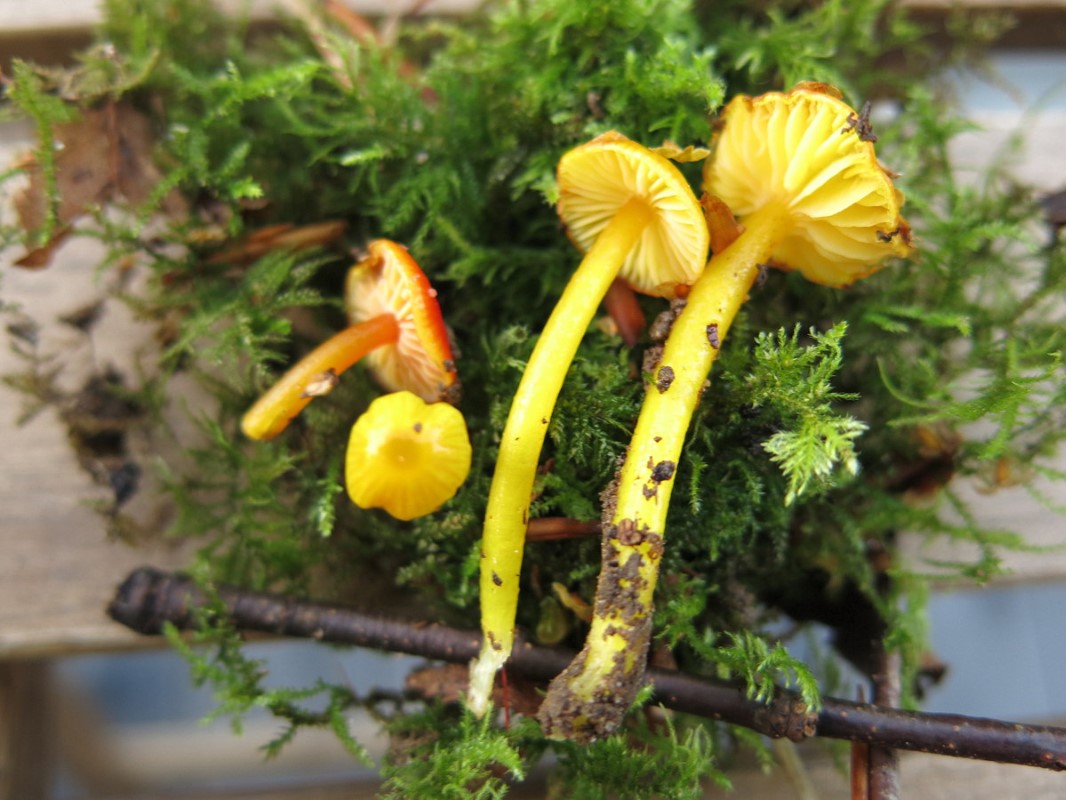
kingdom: Fungi
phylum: Basidiomycota
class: Agaricomycetes
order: Agaricales
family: Hygrophoraceae
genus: Hygrocybe
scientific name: Hygrocybe glutinipes
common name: slimstokket vokshat
